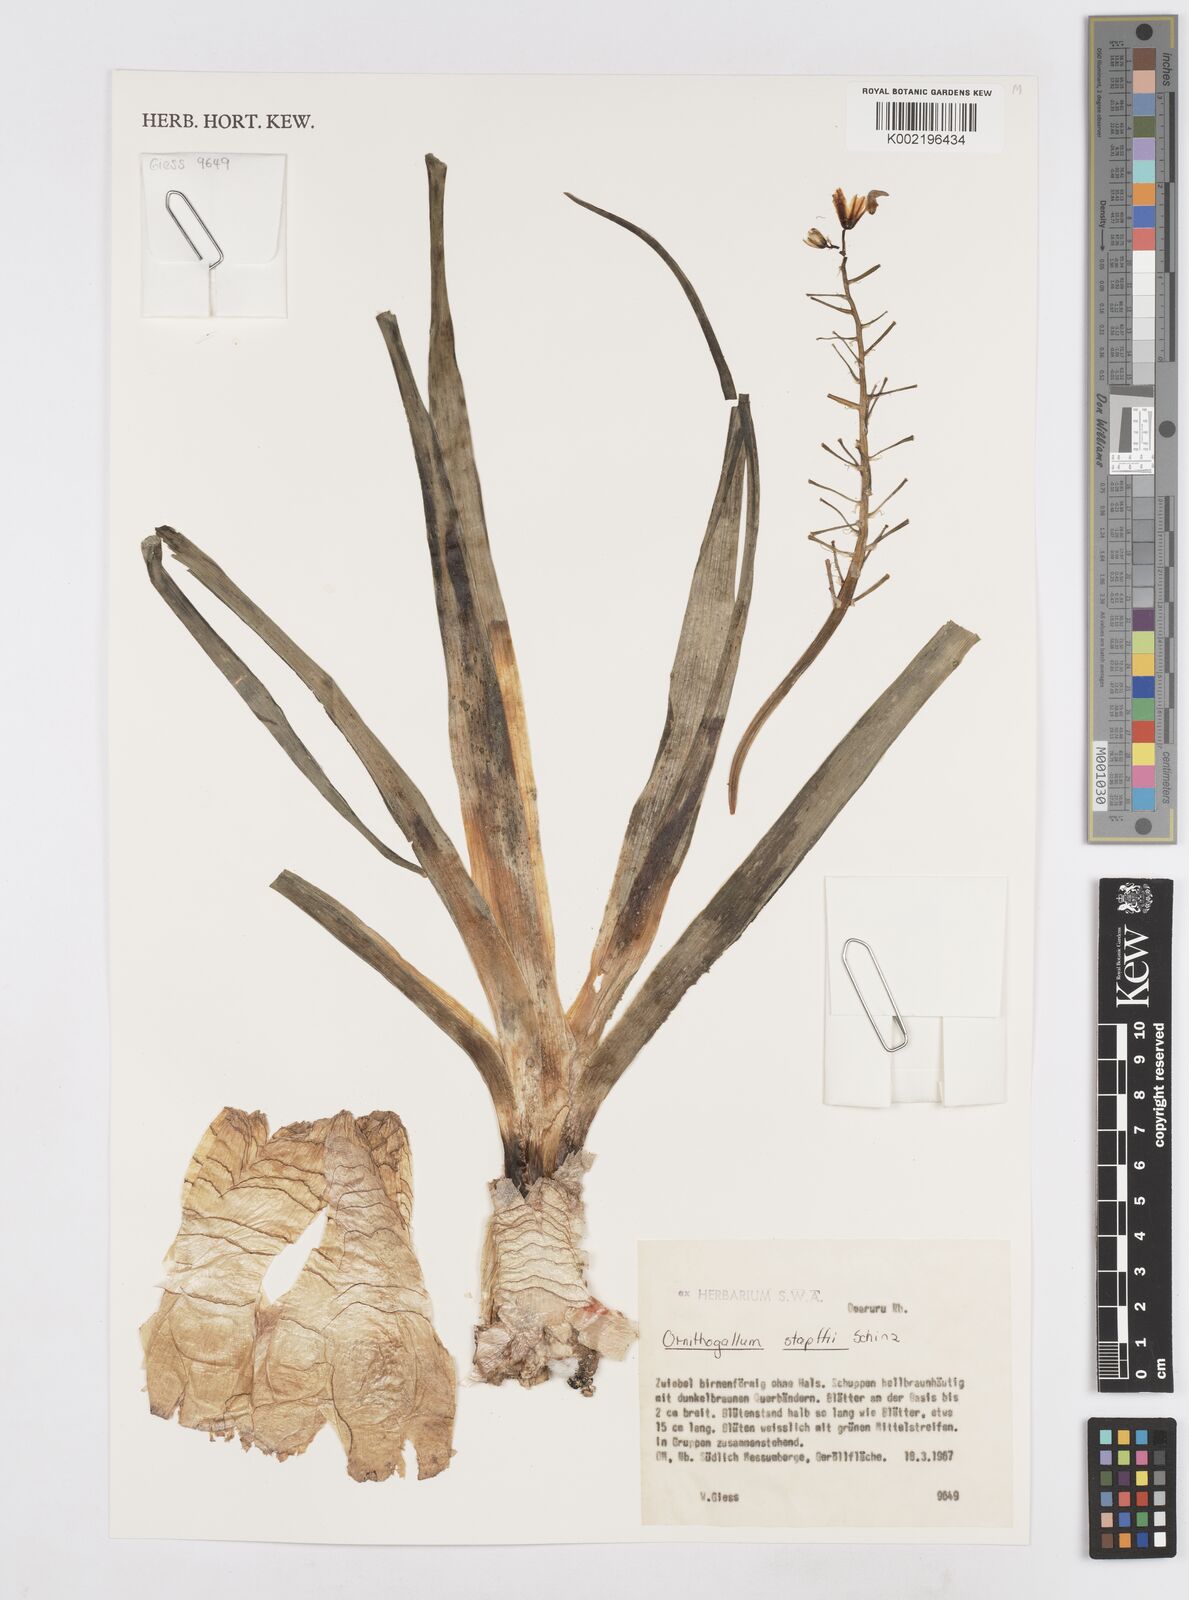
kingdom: Plantae
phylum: Tracheophyta
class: Liliopsida
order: Asparagales
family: Asparagaceae
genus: Albuca
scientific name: Albuca stapffii
